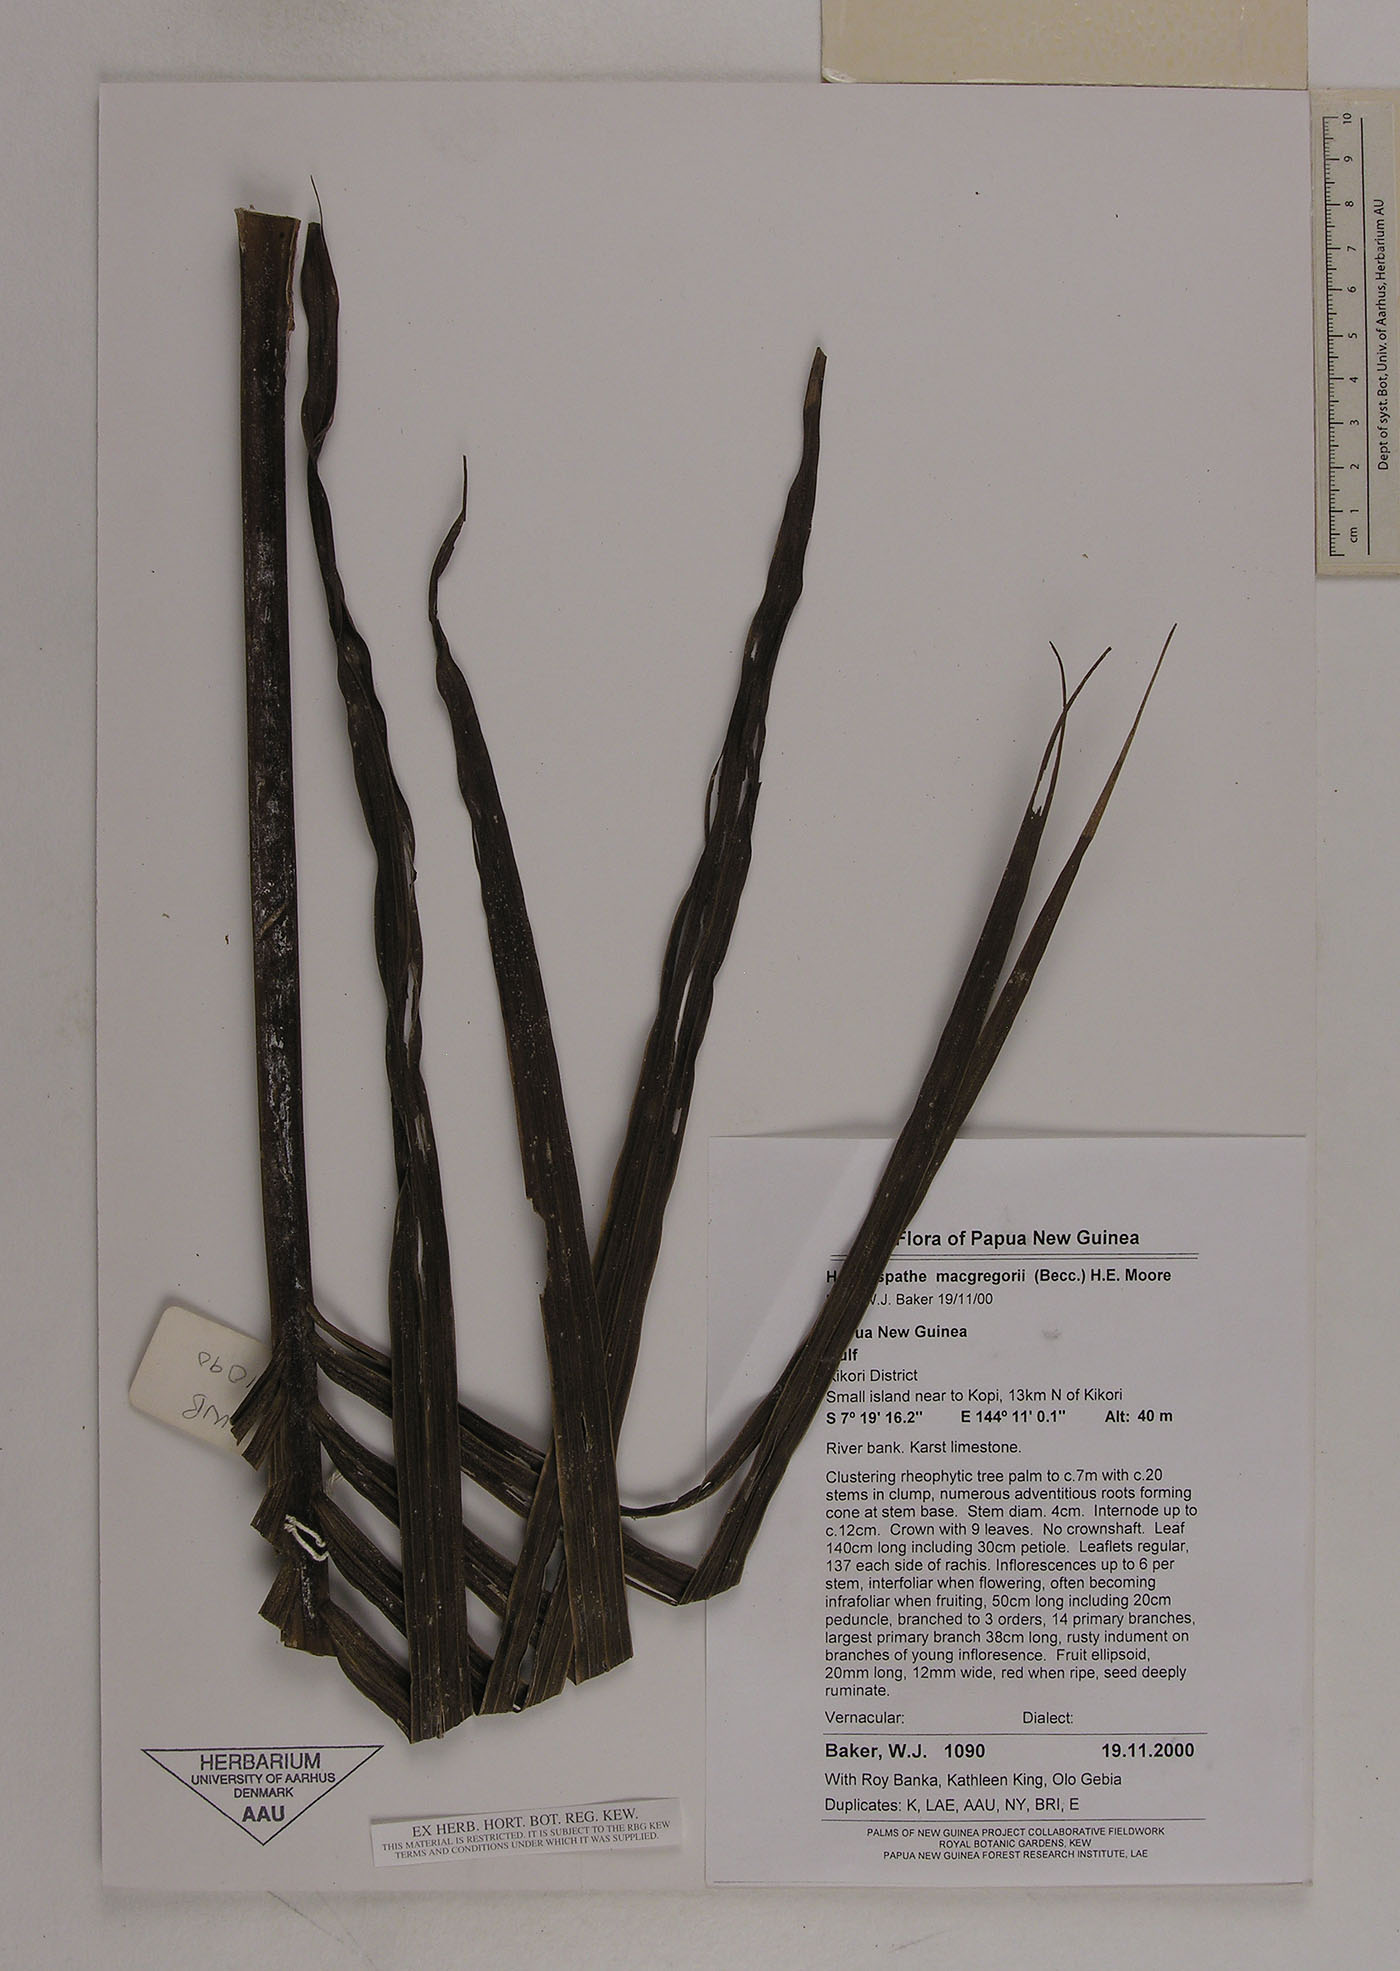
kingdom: Plantae
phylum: Tracheophyta
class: Liliopsida
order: Arecales
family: Arecaceae
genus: Heterospathe
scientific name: Heterospathe macgregorii
